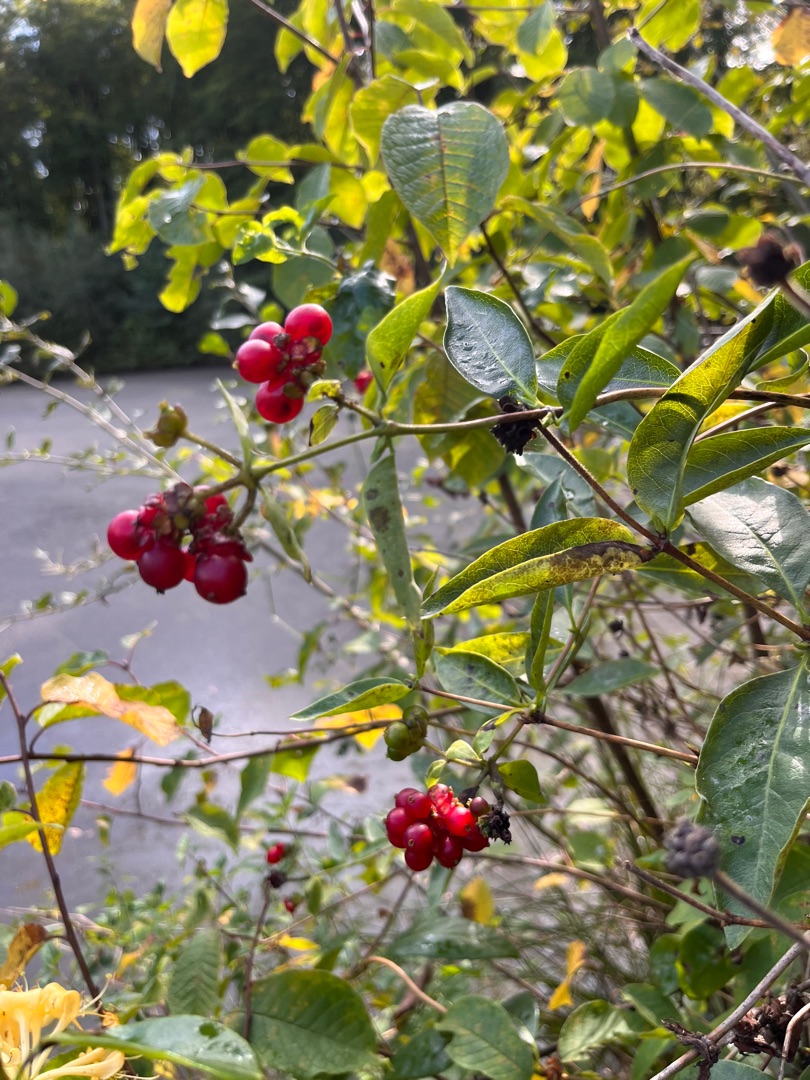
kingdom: Plantae
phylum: Tracheophyta
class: Magnoliopsida
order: Dipsacales
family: Caprifoliaceae
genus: Lonicera
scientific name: Lonicera periclymenum
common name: Almindelig gedeblad
